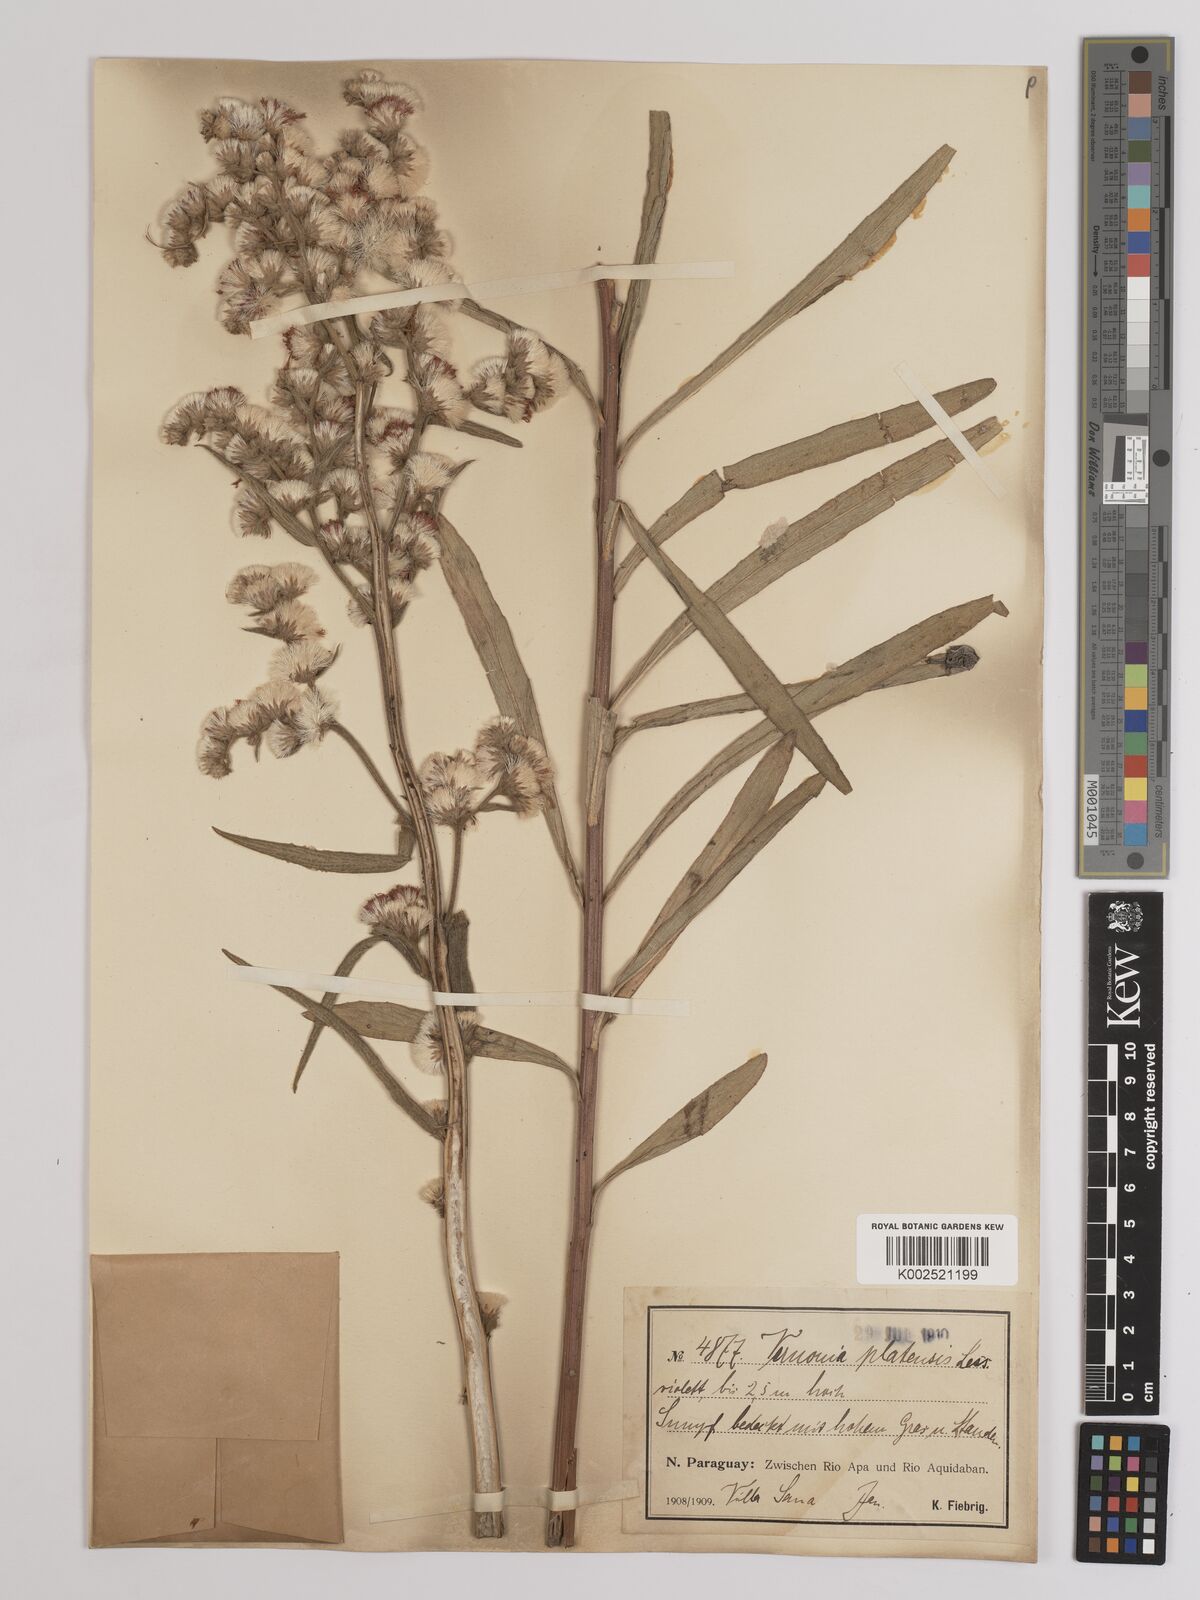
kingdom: Plantae
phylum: Tracheophyta
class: Magnoliopsida
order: Asterales
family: Asteraceae
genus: Chrysolaena
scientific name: Chrysolaena platensis
